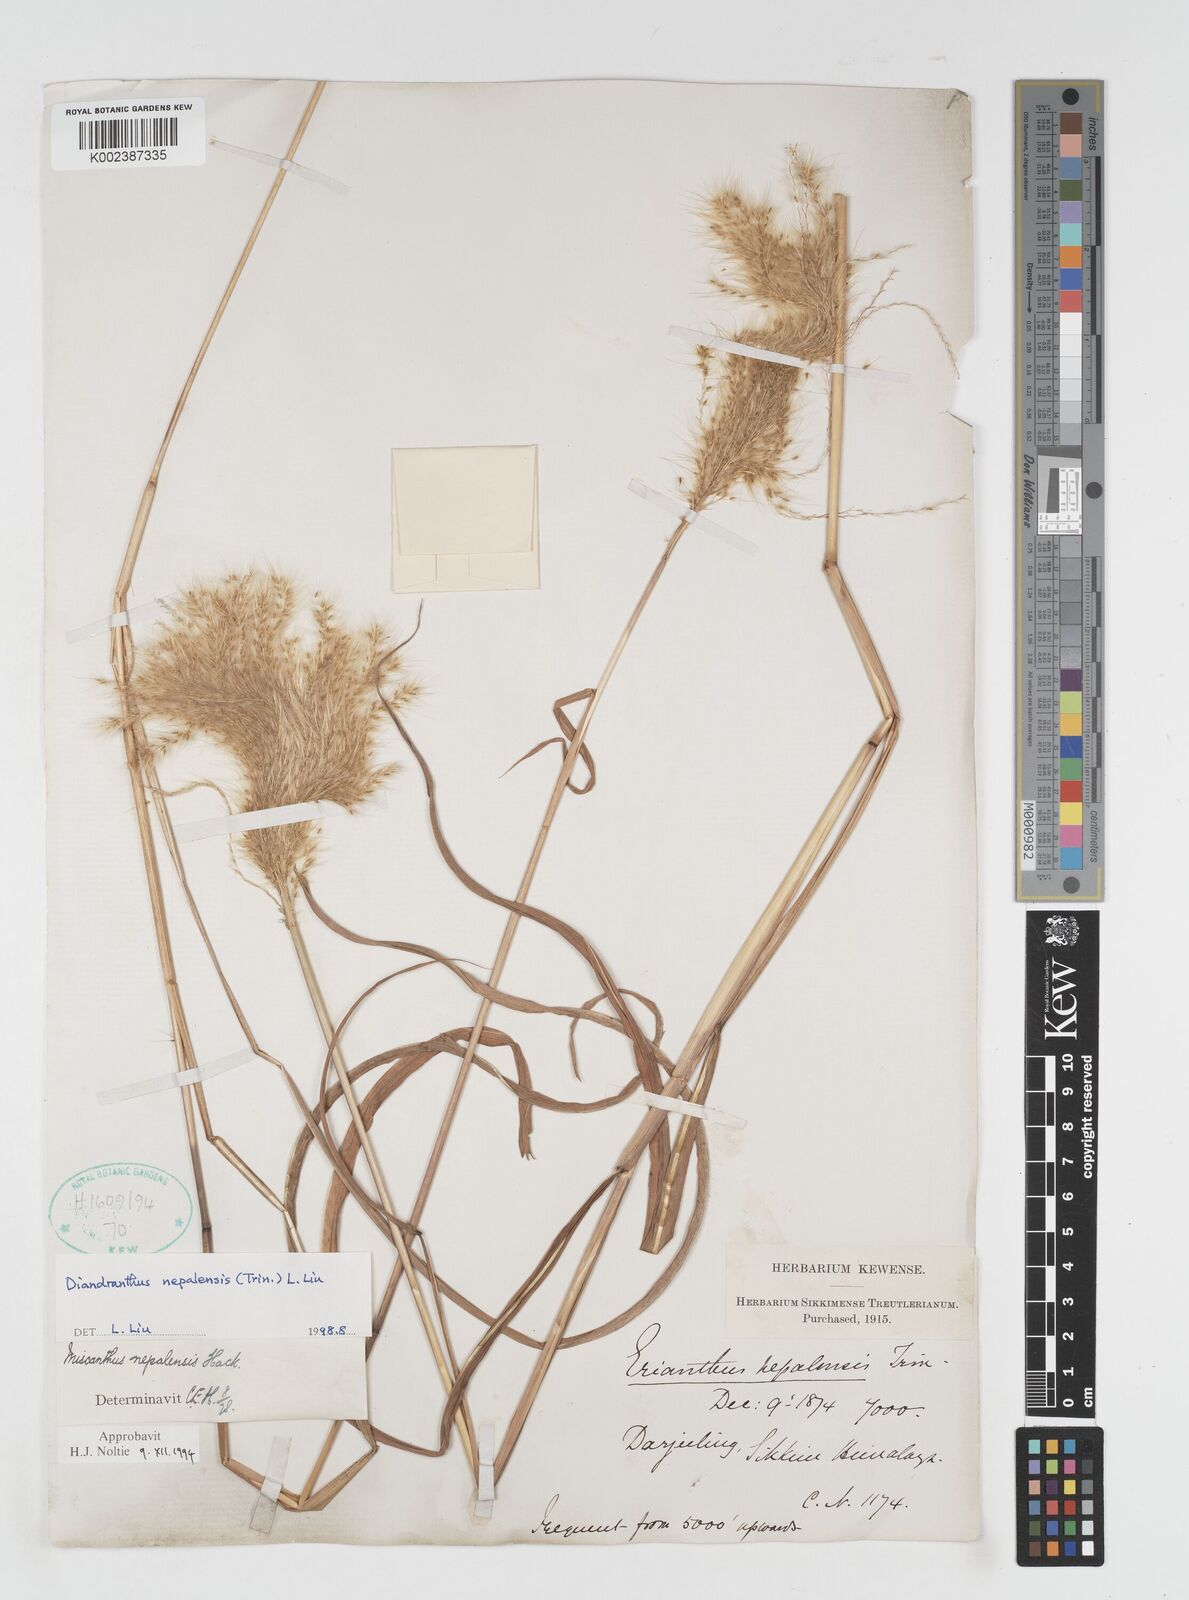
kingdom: Plantae
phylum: Tracheophyta
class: Liliopsida
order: Poales
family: Poaceae
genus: Miscanthus
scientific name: Miscanthus nepalensis
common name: Nepal silver grass
